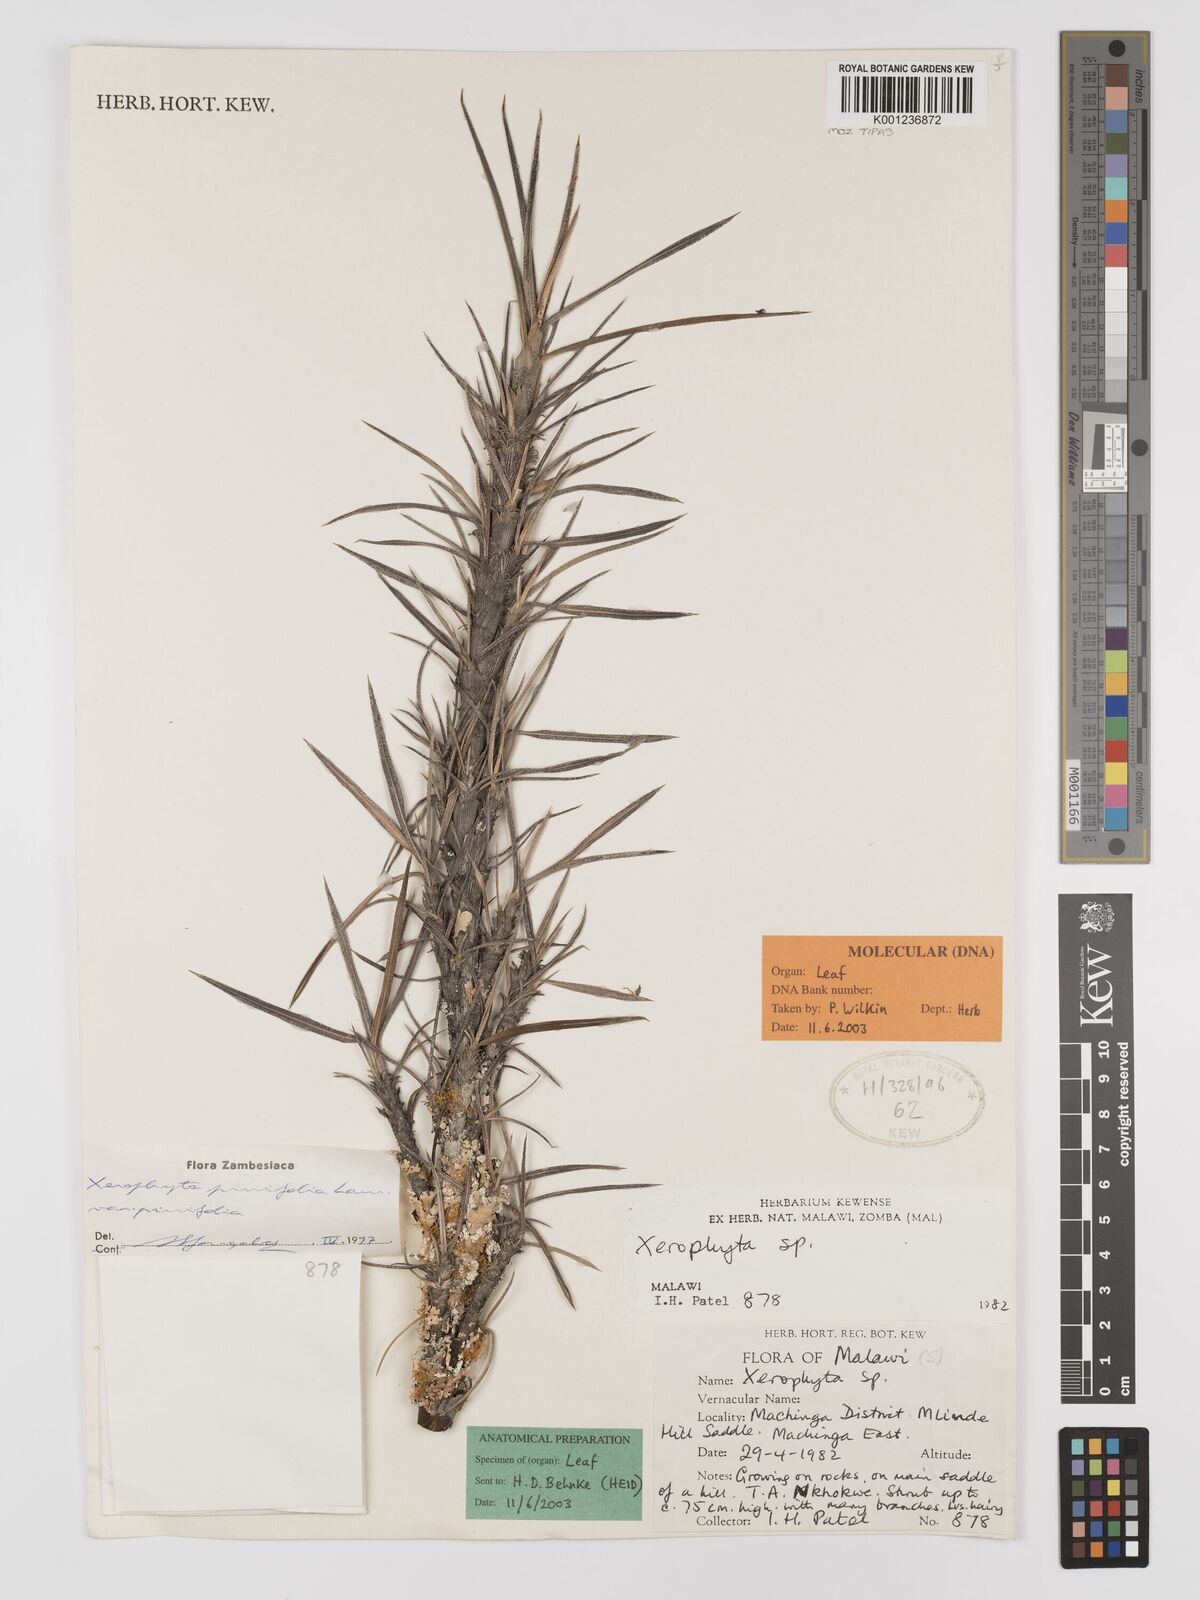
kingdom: Plantae
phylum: Tracheophyta
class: Liliopsida
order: Pandanales
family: Velloziaceae
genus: Xerophyta
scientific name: Xerophyta pinifolia
